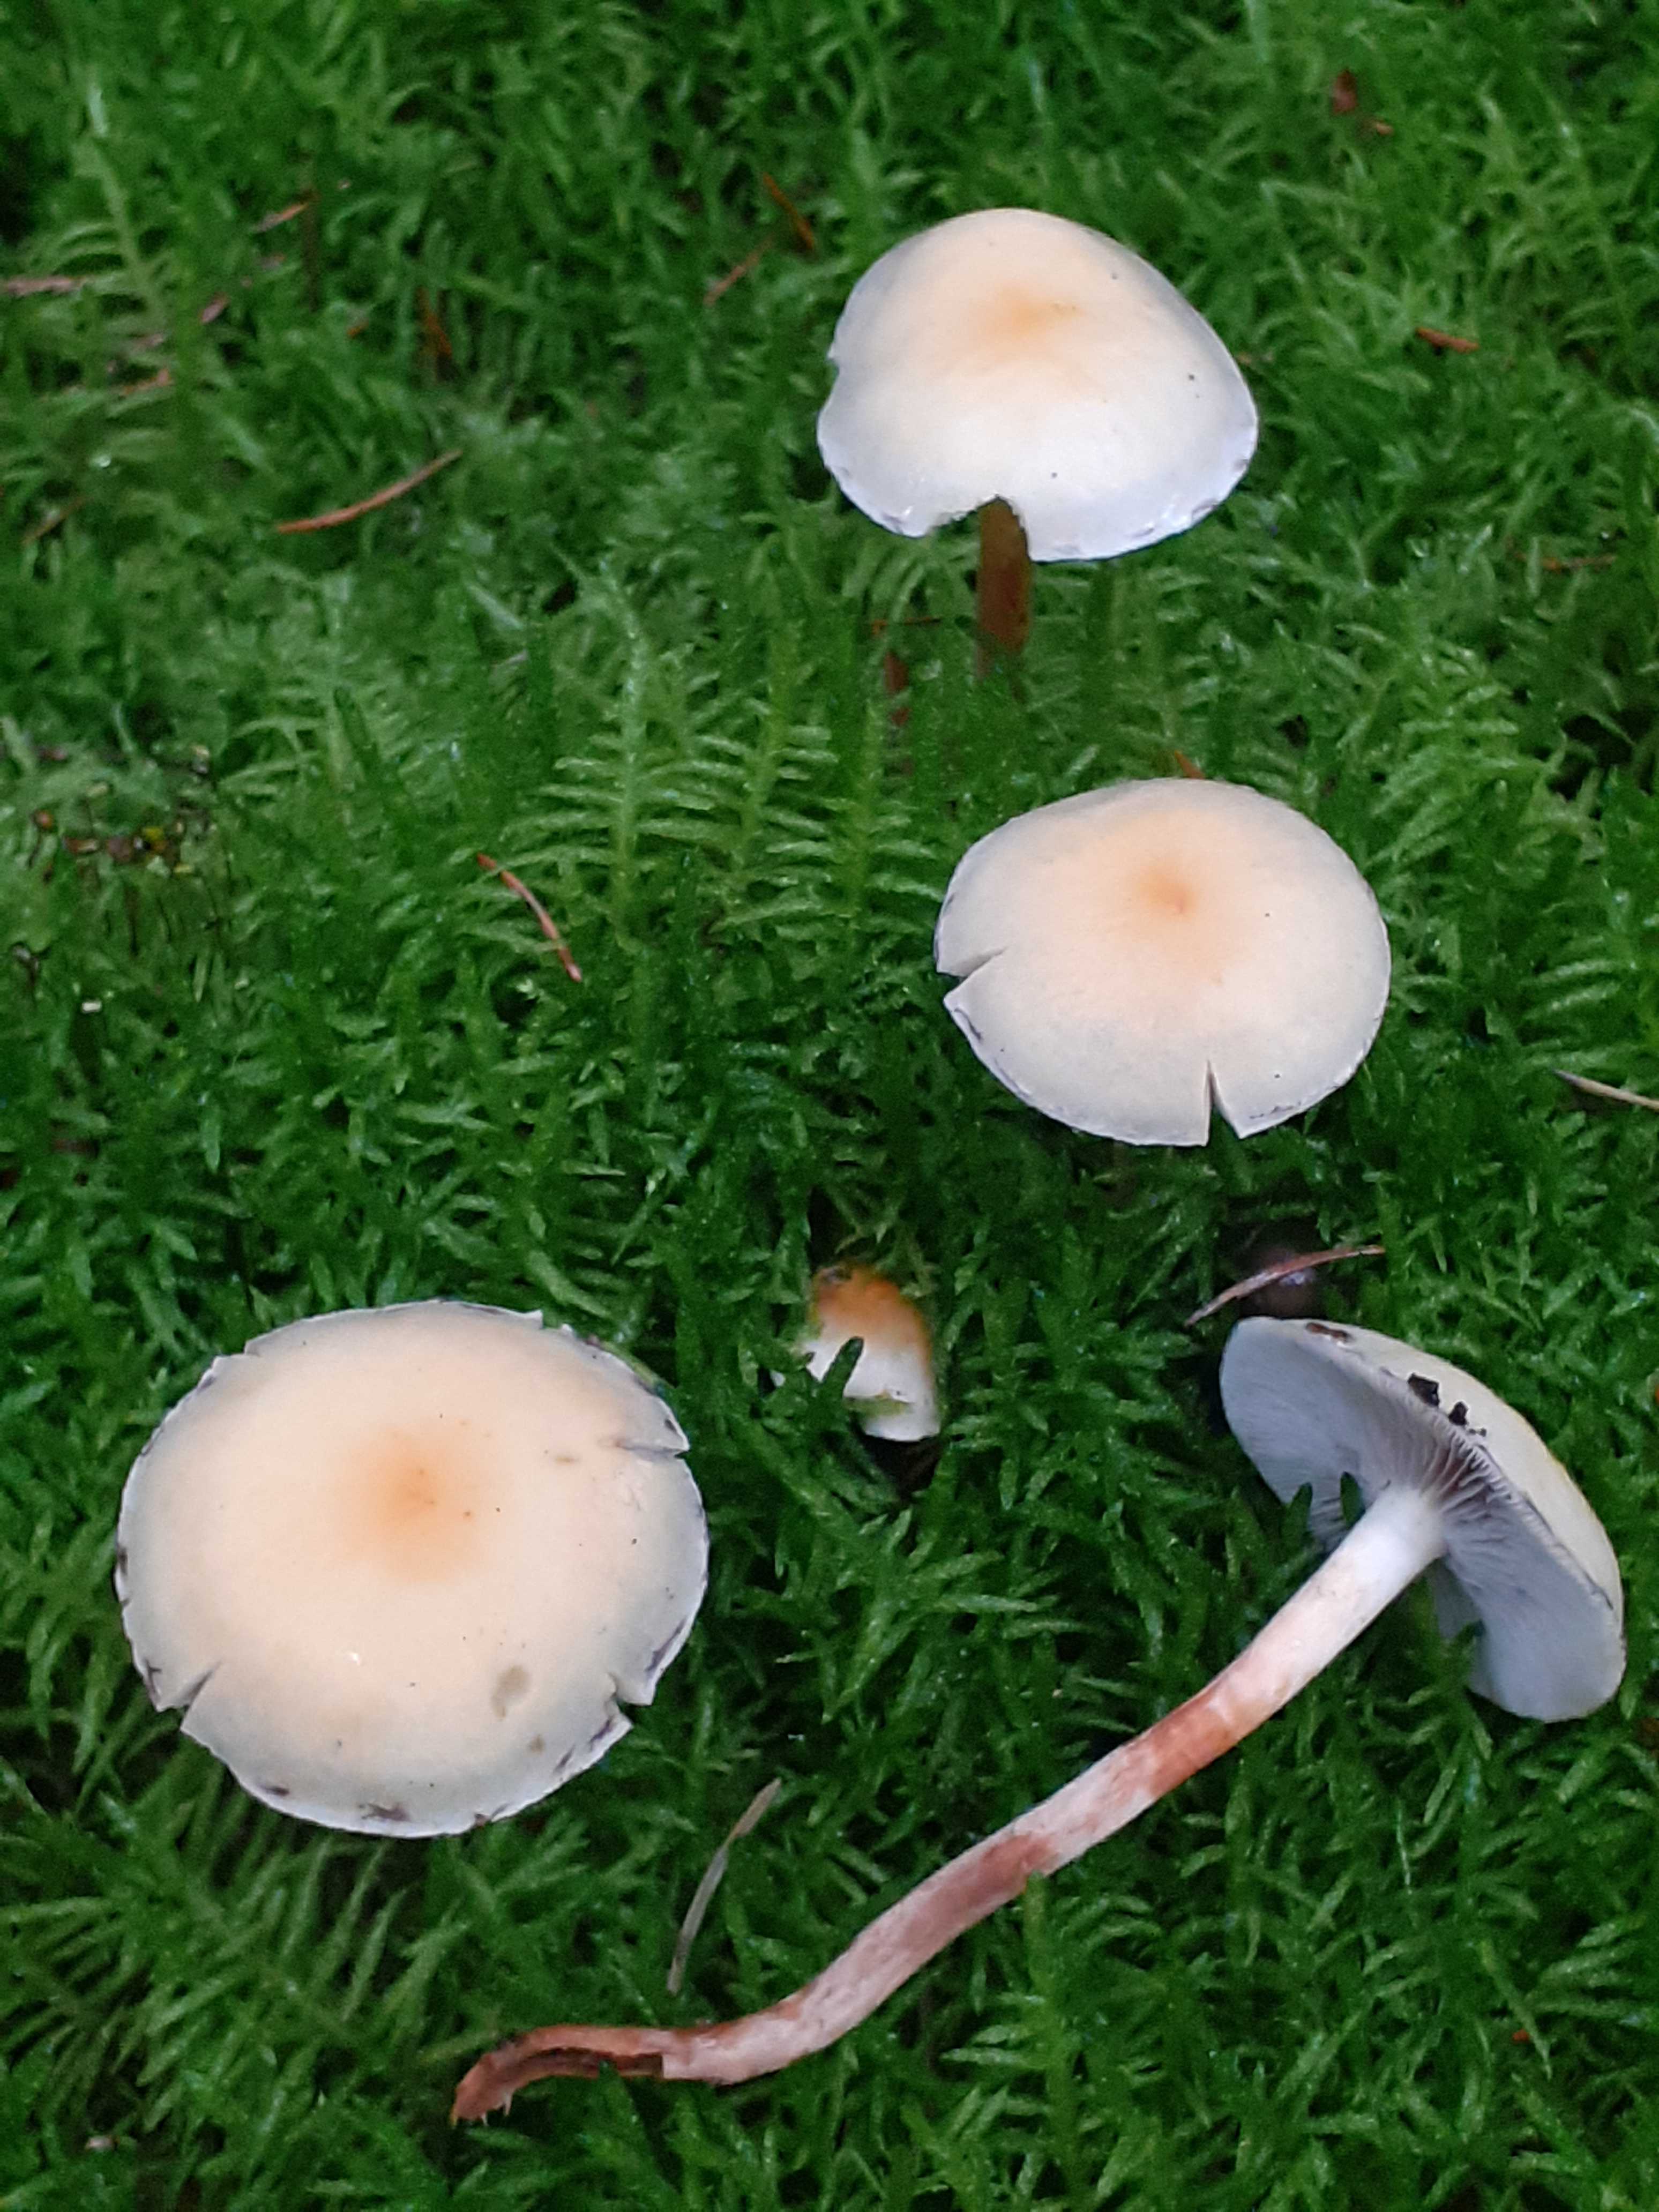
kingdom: Fungi
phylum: Basidiomycota
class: Agaricomycetes
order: Agaricales
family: Strophariaceae
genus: Hypholoma
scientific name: Hypholoma capnoides
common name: gran-svovlhat
